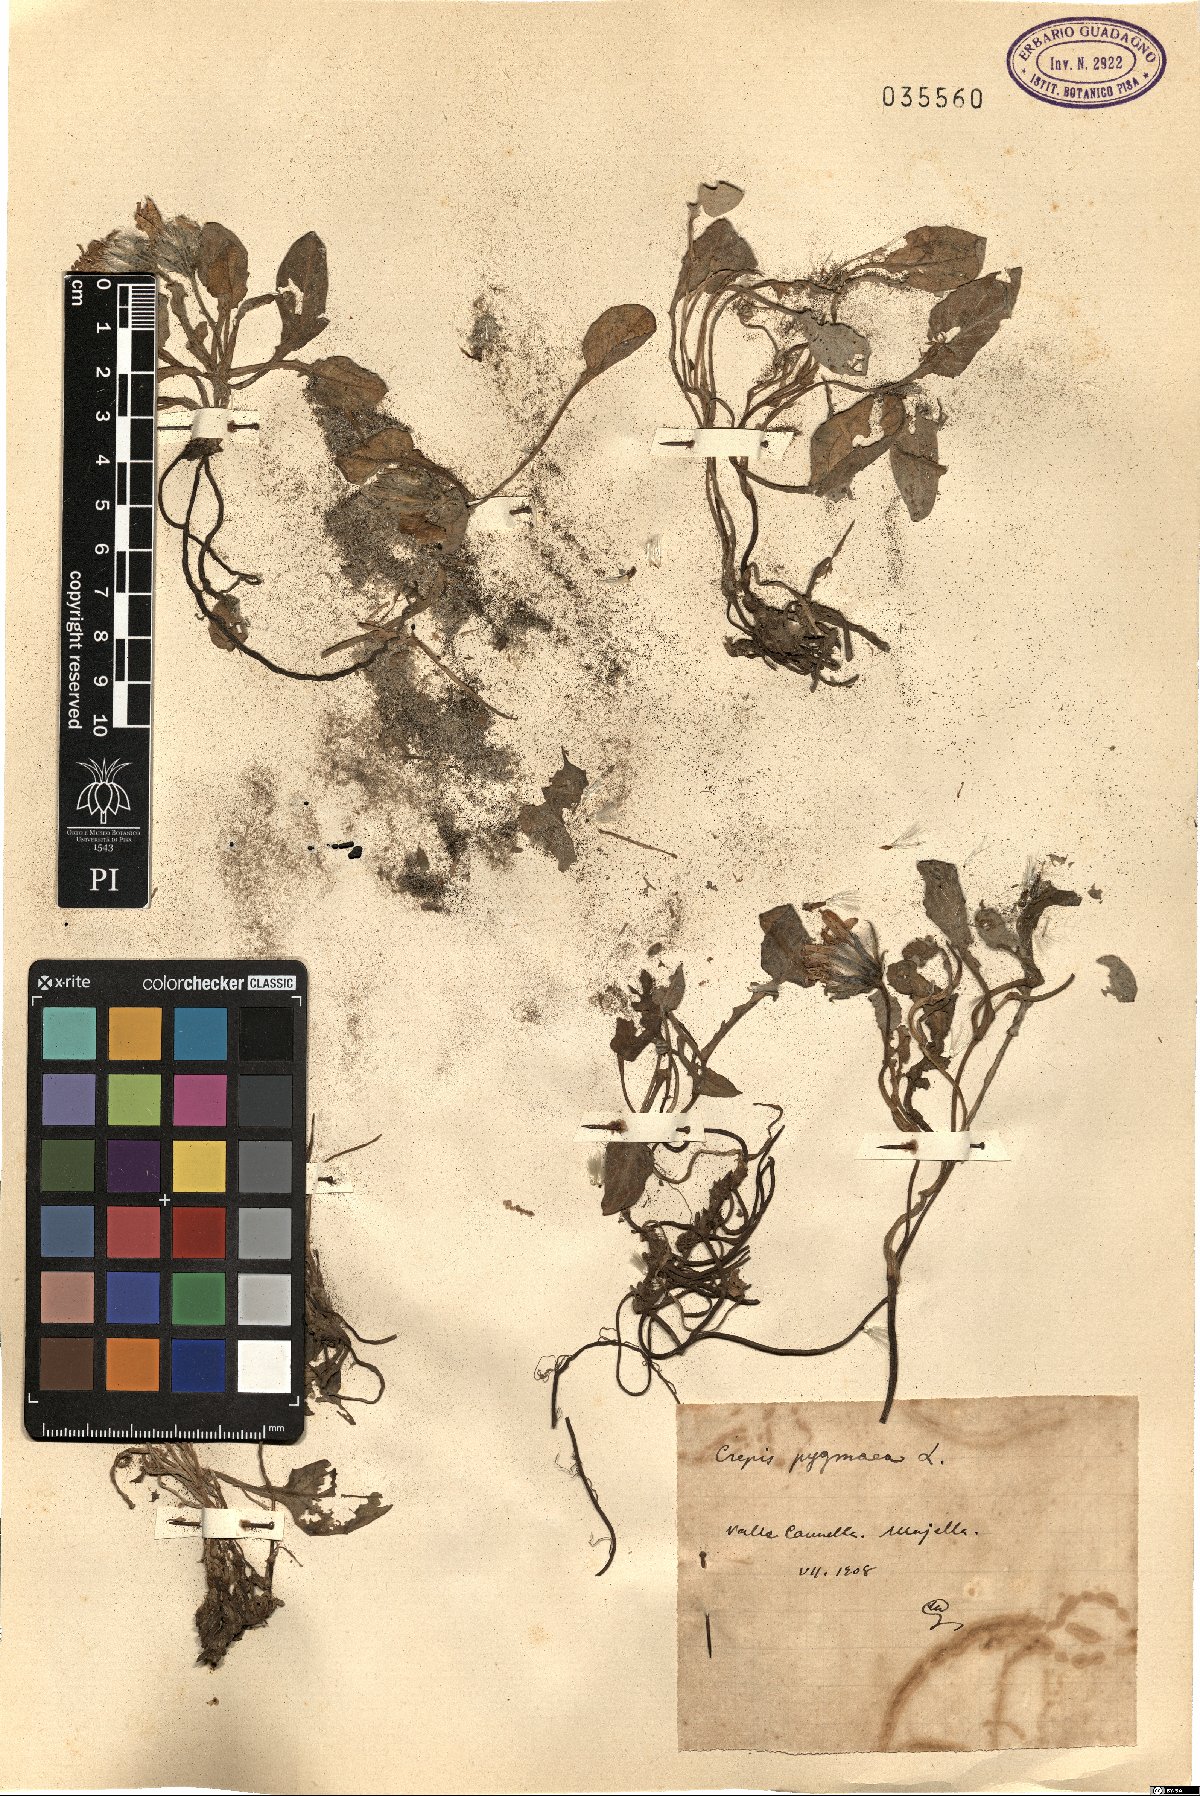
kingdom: Plantae
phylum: Tracheophyta
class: Magnoliopsida
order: Asterales
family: Asteraceae
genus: Crepis
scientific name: Crepis pygmaea
